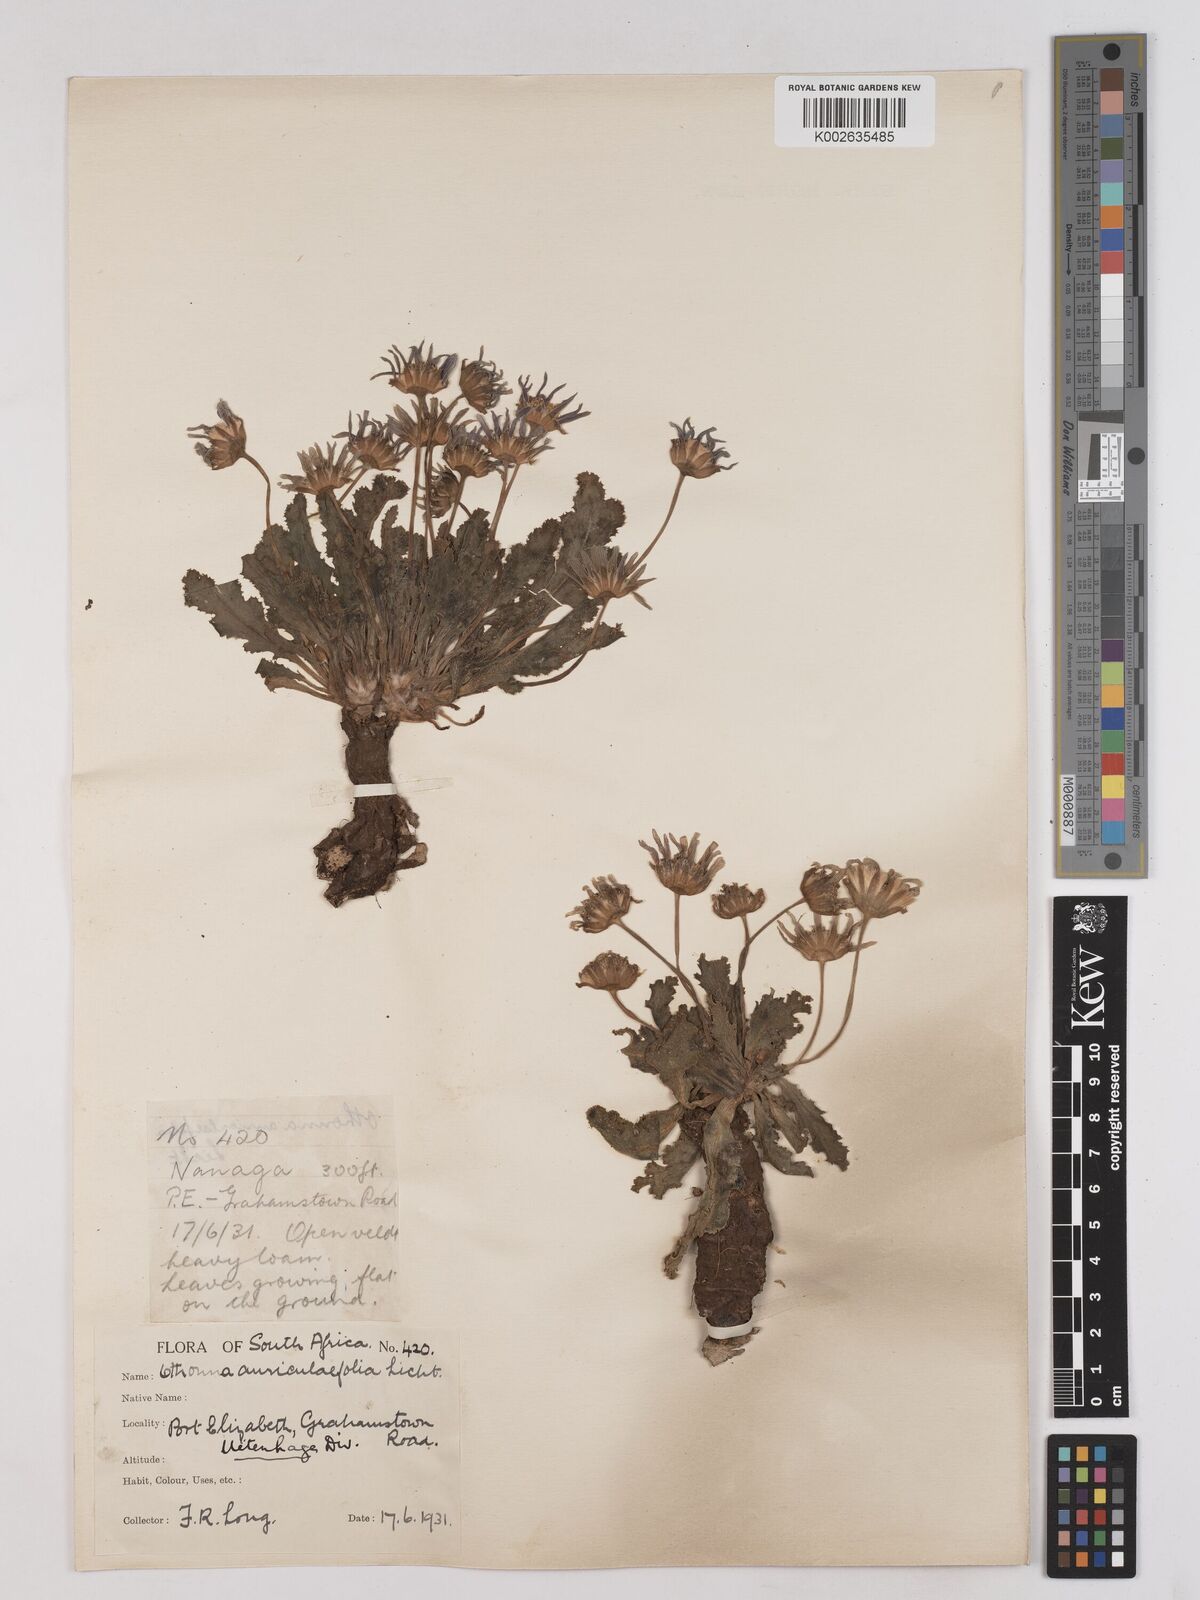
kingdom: Plantae
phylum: Tracheophyta
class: Magnoliopsida
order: Asterales
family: Asteraceae
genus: Othonna
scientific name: Othonna auriculifolia
